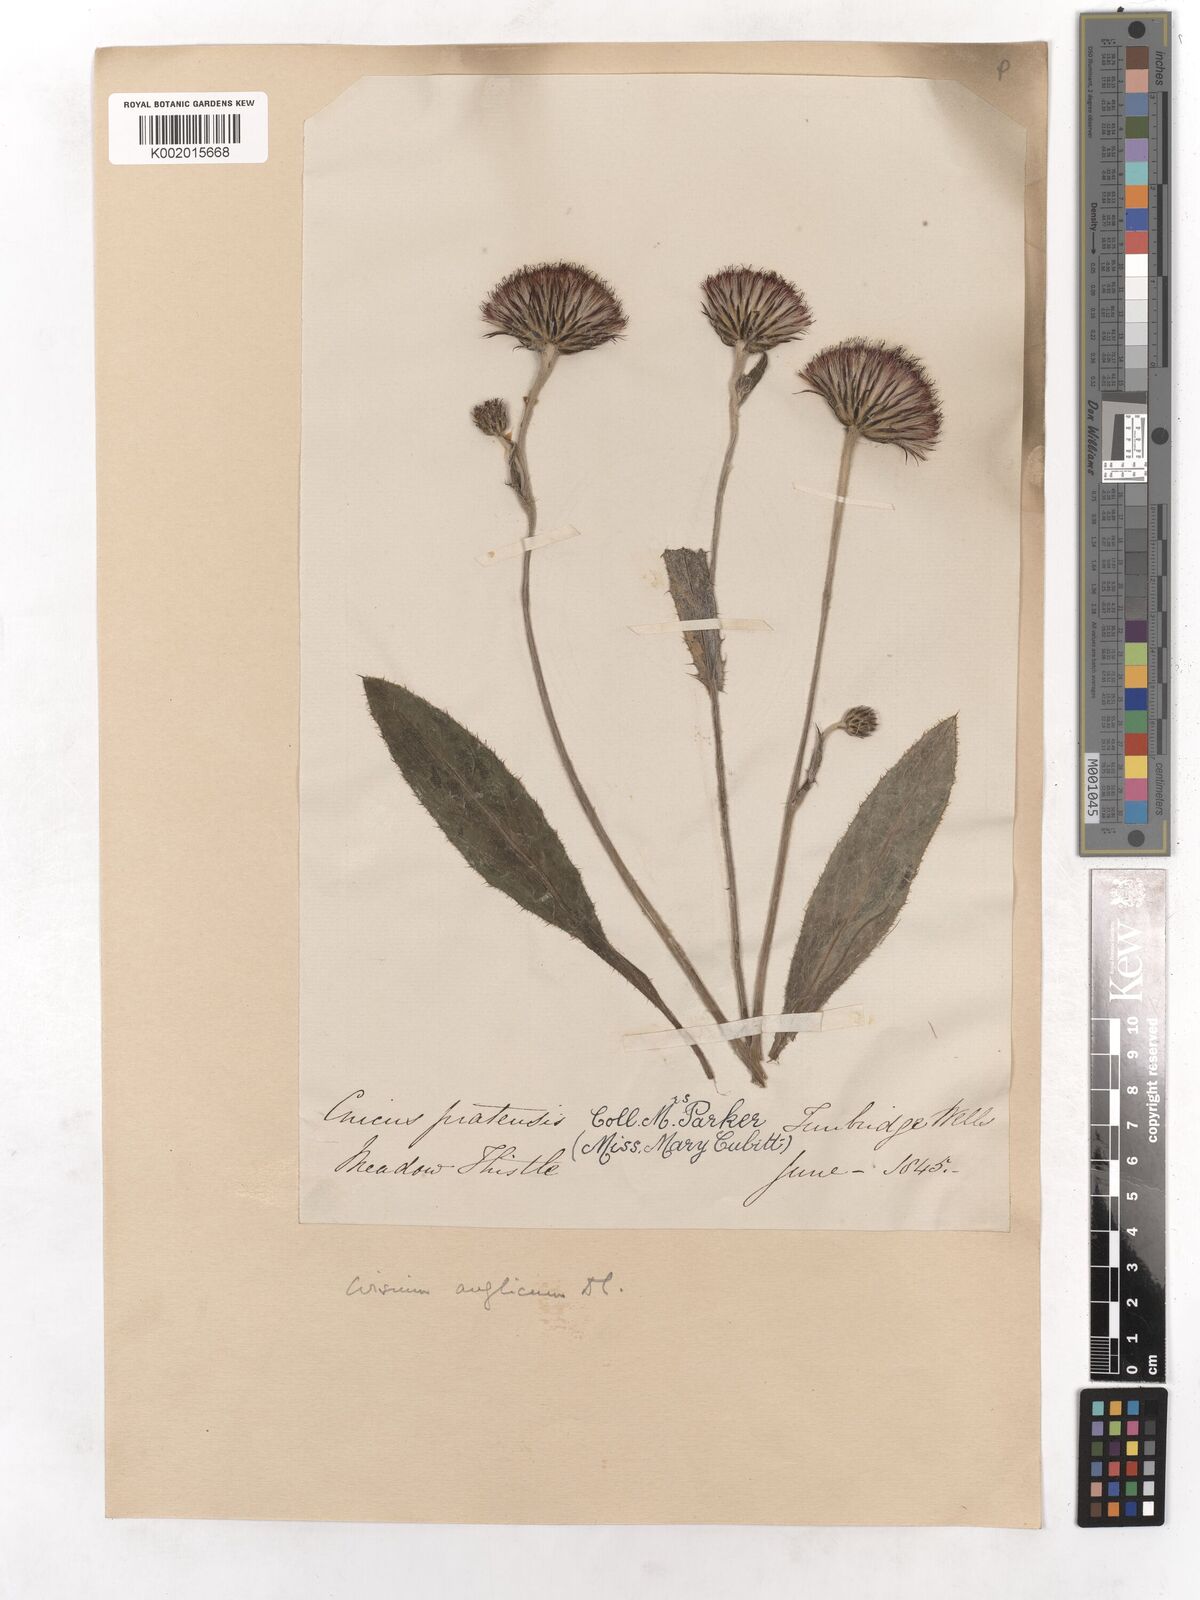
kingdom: Plantae
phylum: Tracheophyta
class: Magnoliopsida
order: Asterales
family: Asteraceae
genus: Cirsium
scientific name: Cirsium dissectum
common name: Meadow thistle
